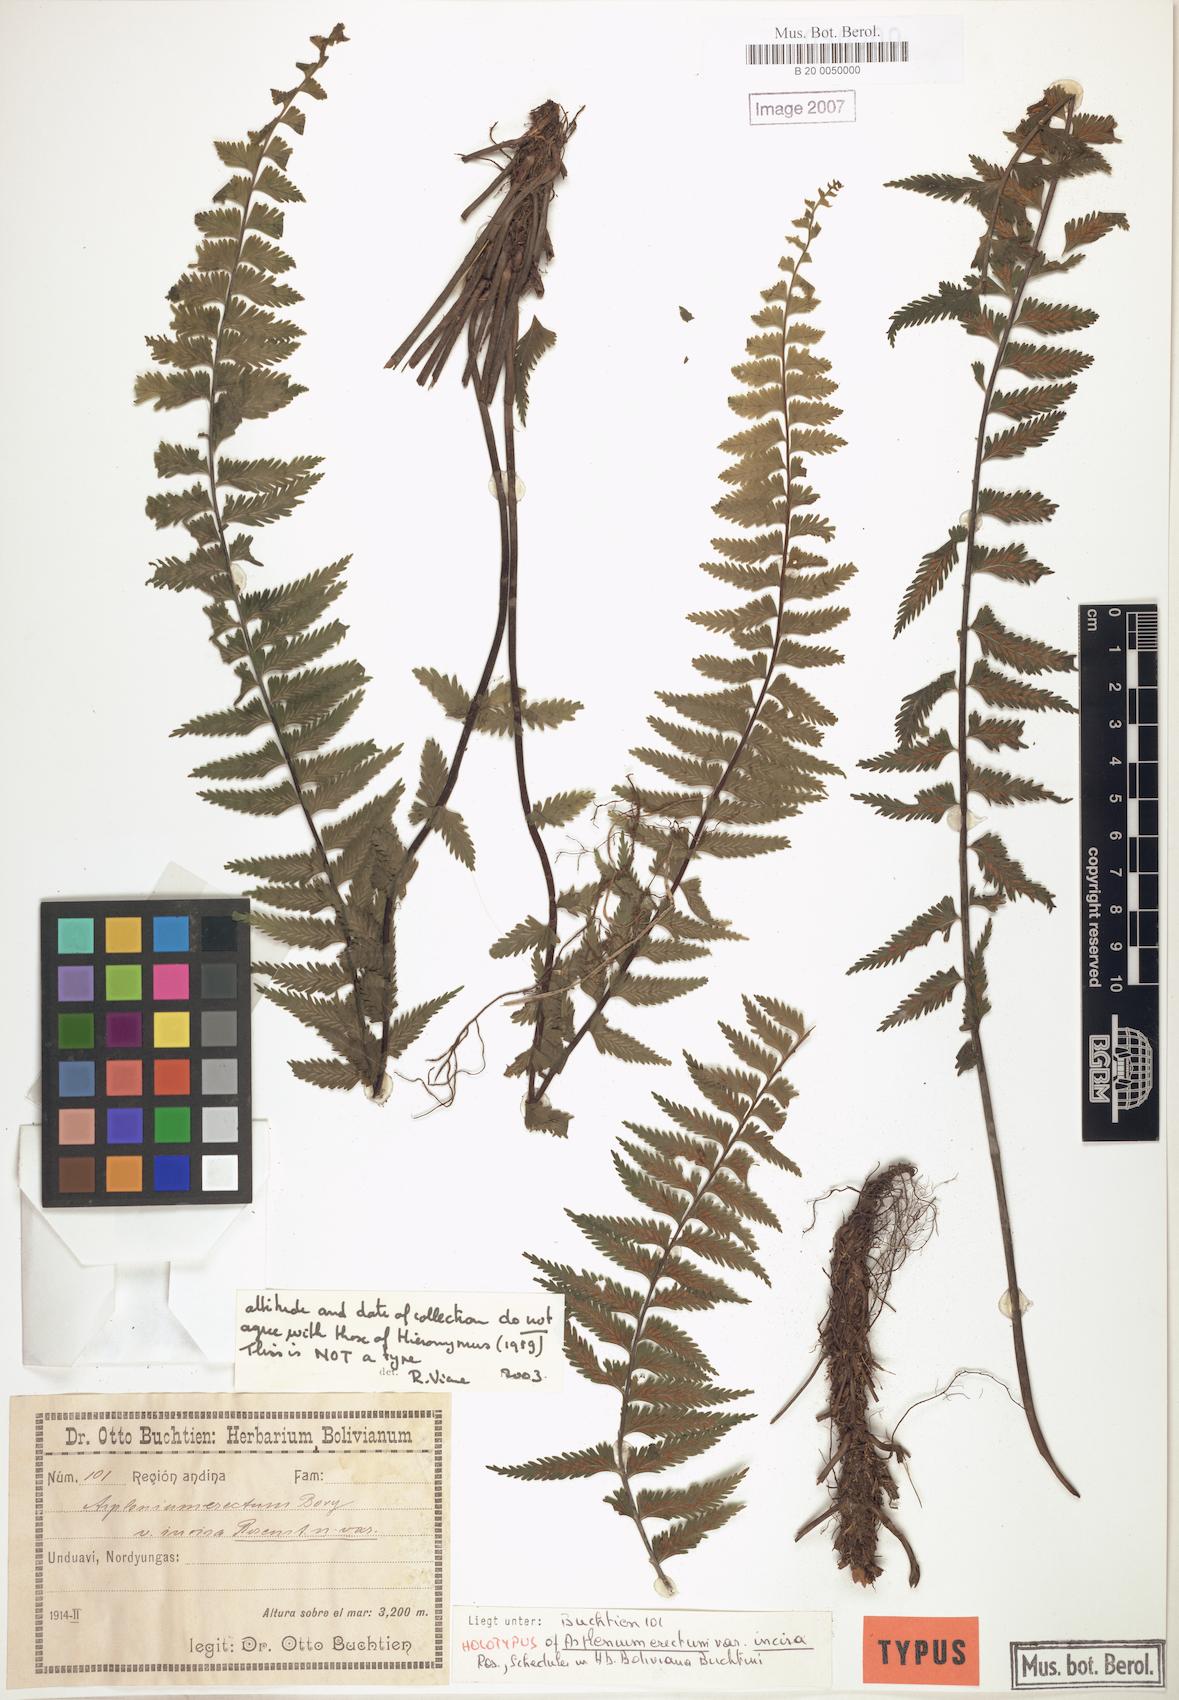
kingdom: Plantae
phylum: Tracheophyta
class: Polypodiopsida
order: Polypodiales
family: Aspleniaceae
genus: Asplenium
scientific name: Asplenium harpeodes
